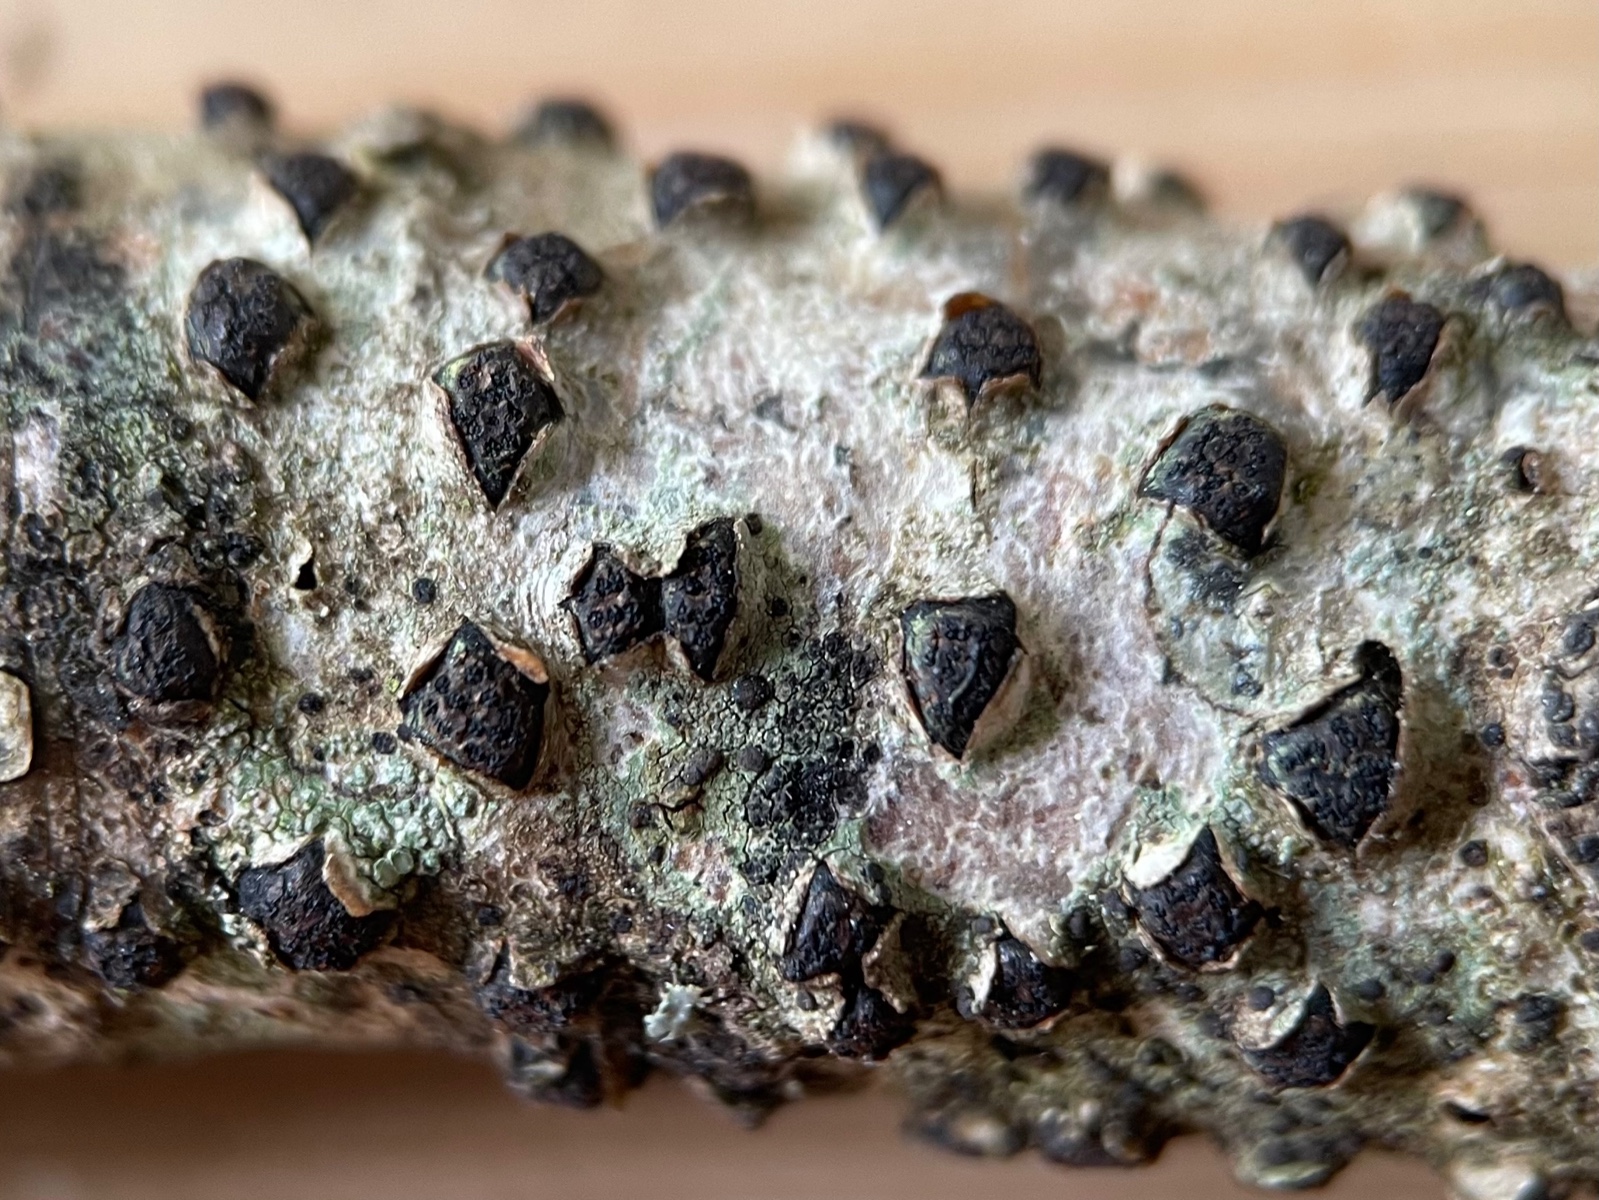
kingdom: Fungi
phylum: Ascomycota
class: Sordariomycetes
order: Xylariales
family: Diatrypaceae
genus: Diatrype
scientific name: Diatrype
